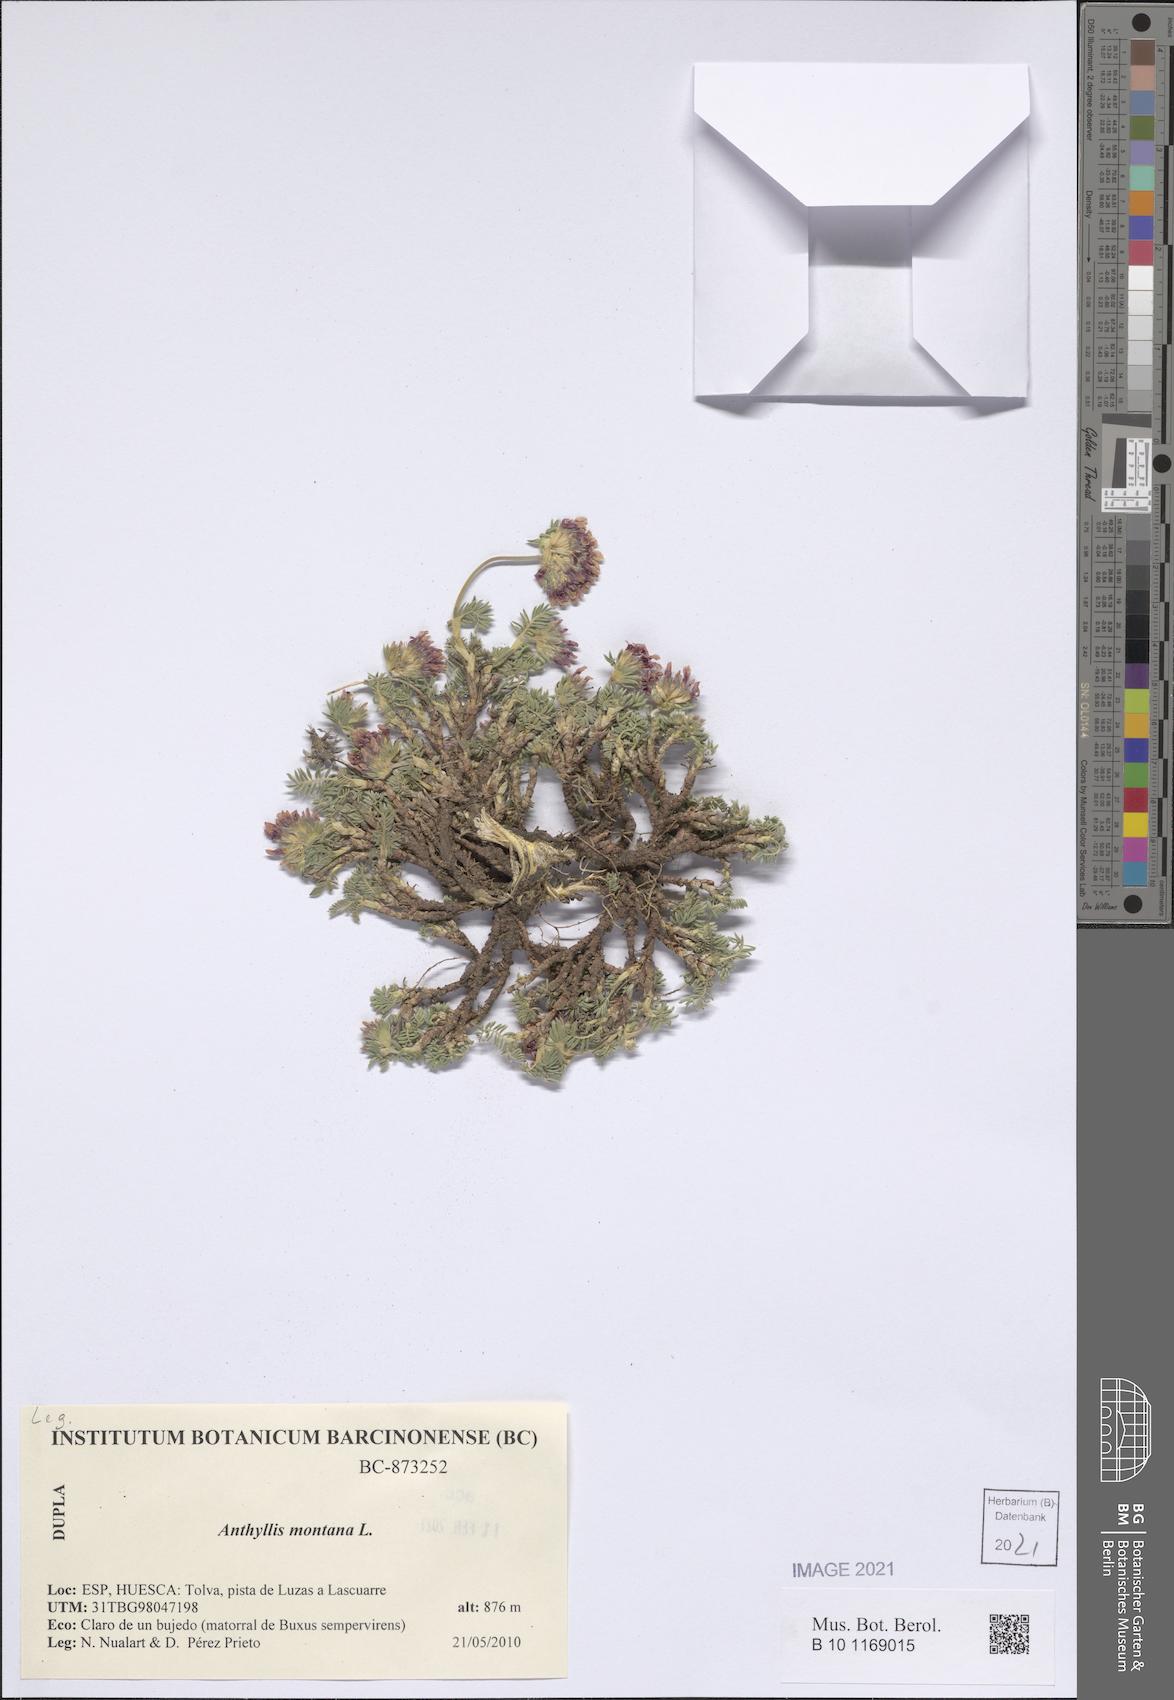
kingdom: Plantae
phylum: Tracheophyta
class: Magnoliopsida
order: Fabales
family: Fabaceae
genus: Anthyllis
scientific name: Anthyllis montana
